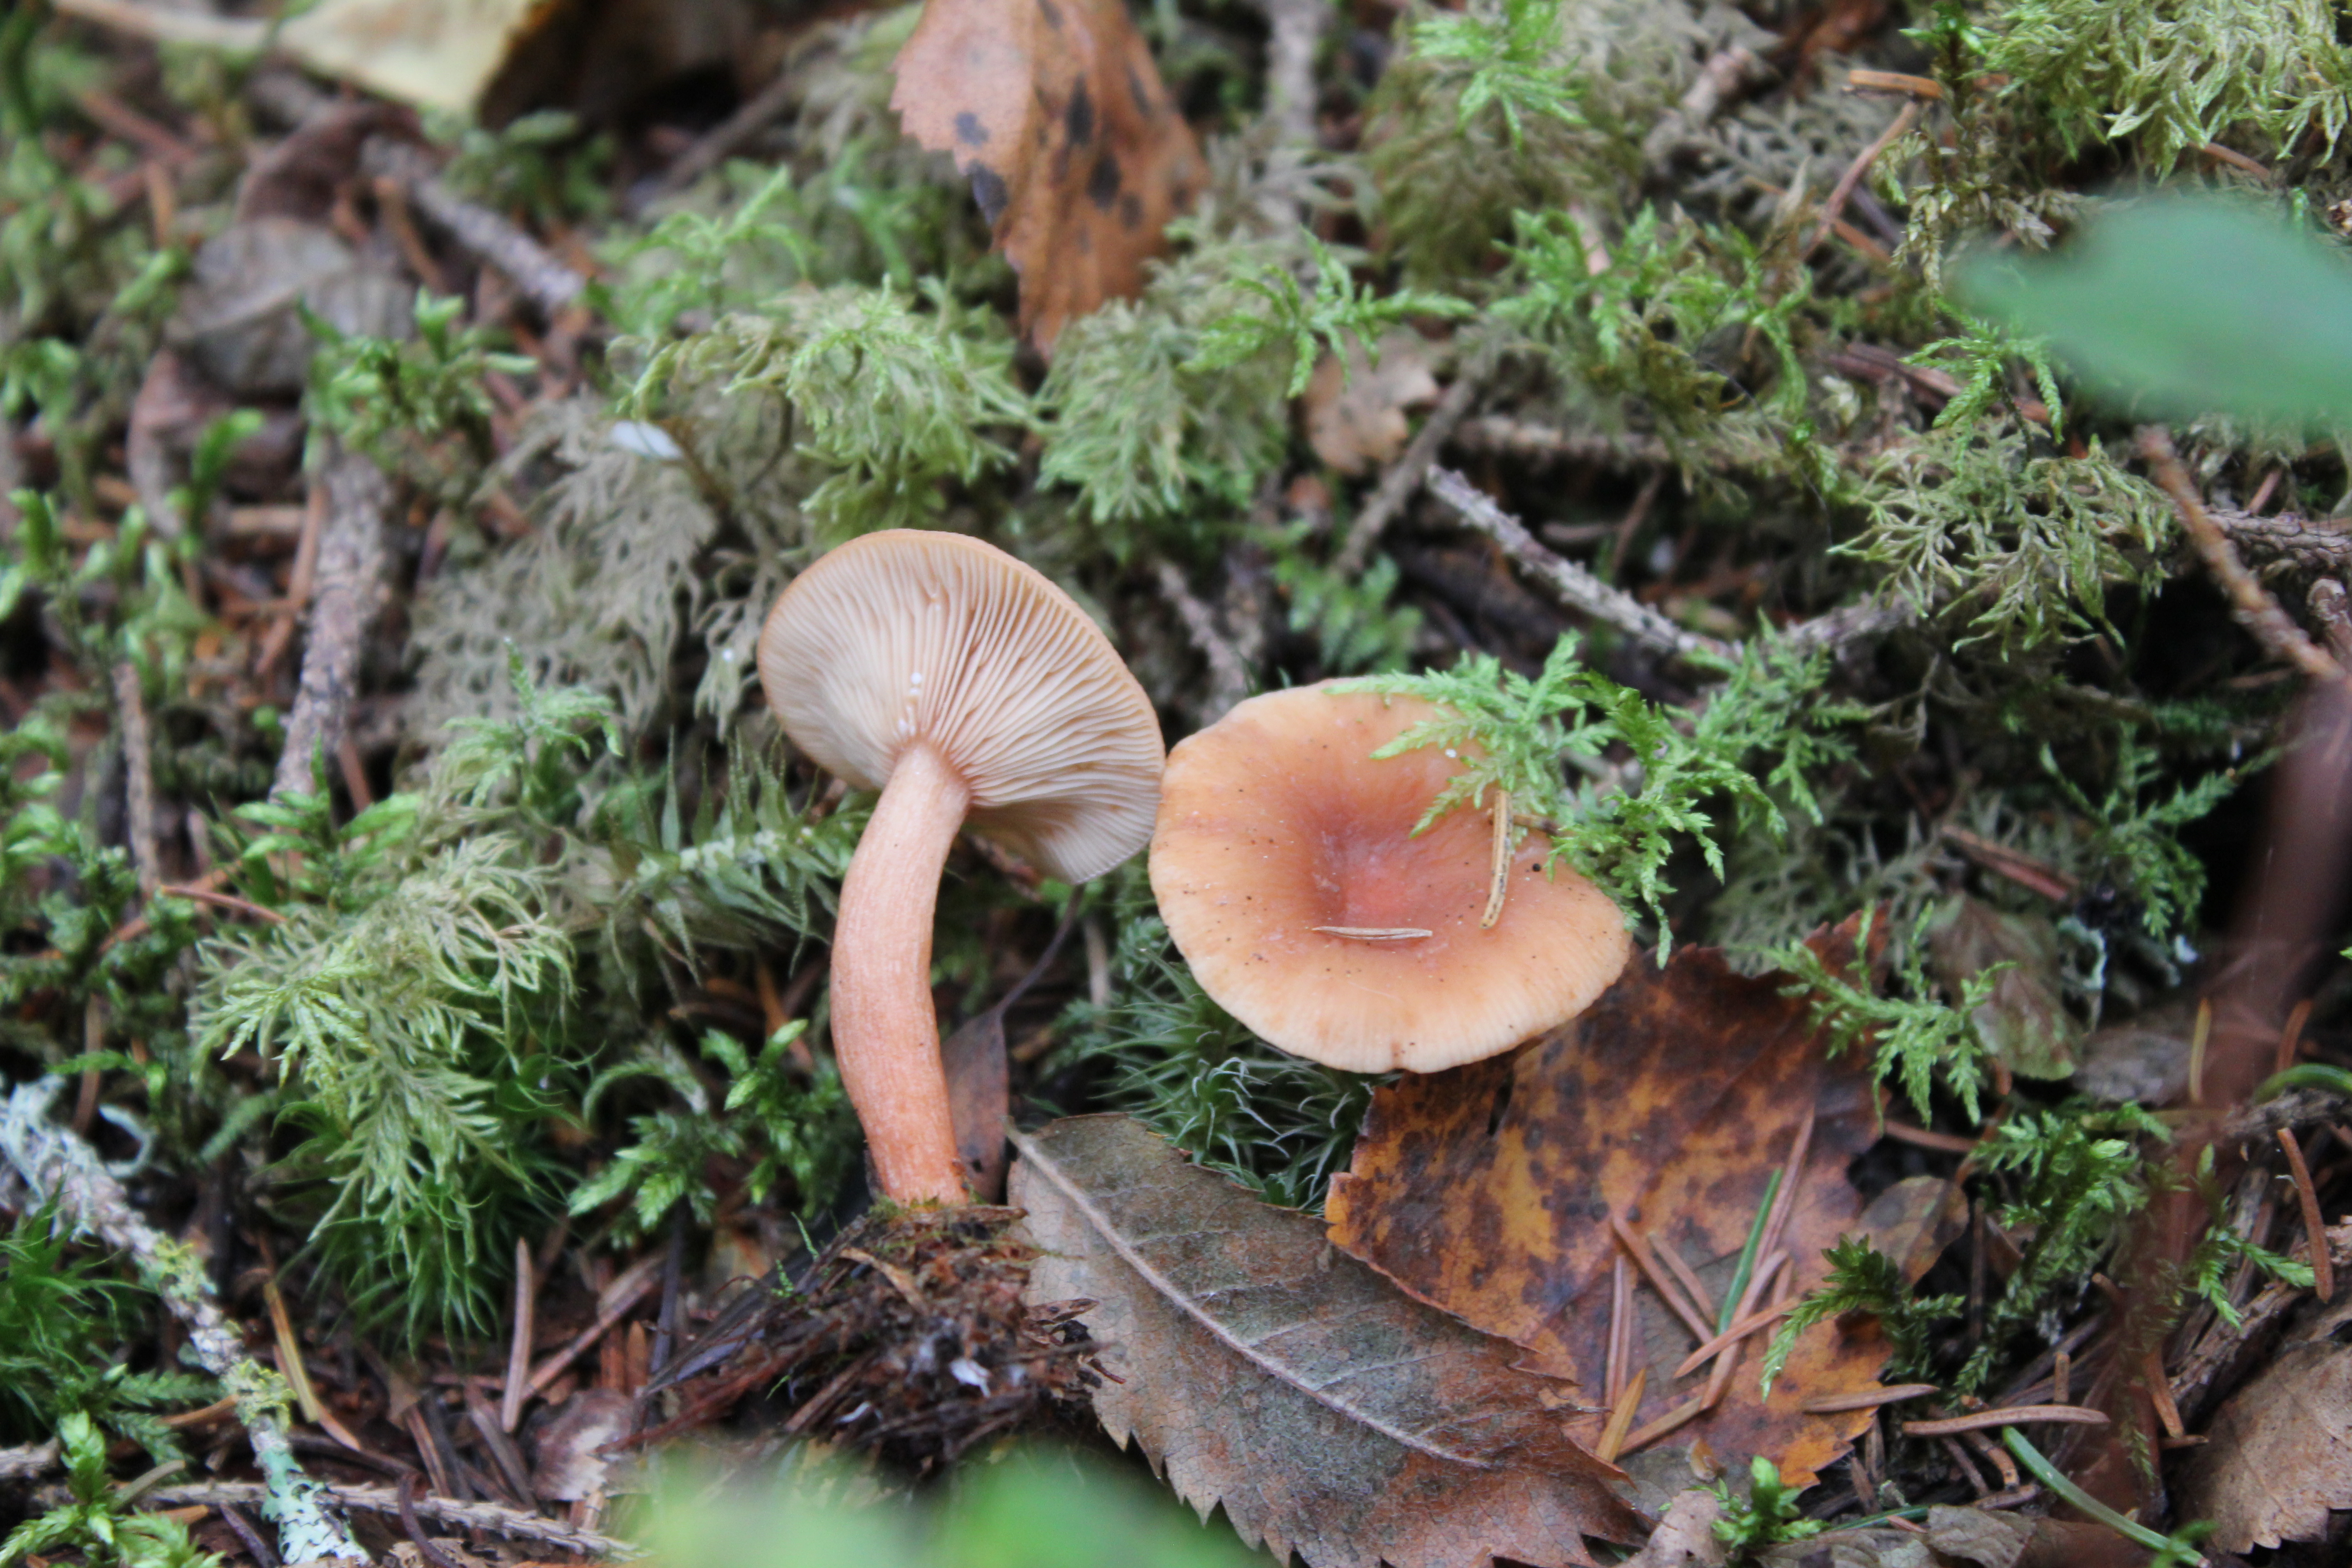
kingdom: Fungi
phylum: Basidiomycota
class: Agaricomycetes
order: Russulales
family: Russulaceae
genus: Lactarius
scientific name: Lactarius tabidus
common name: Birch milkcap
